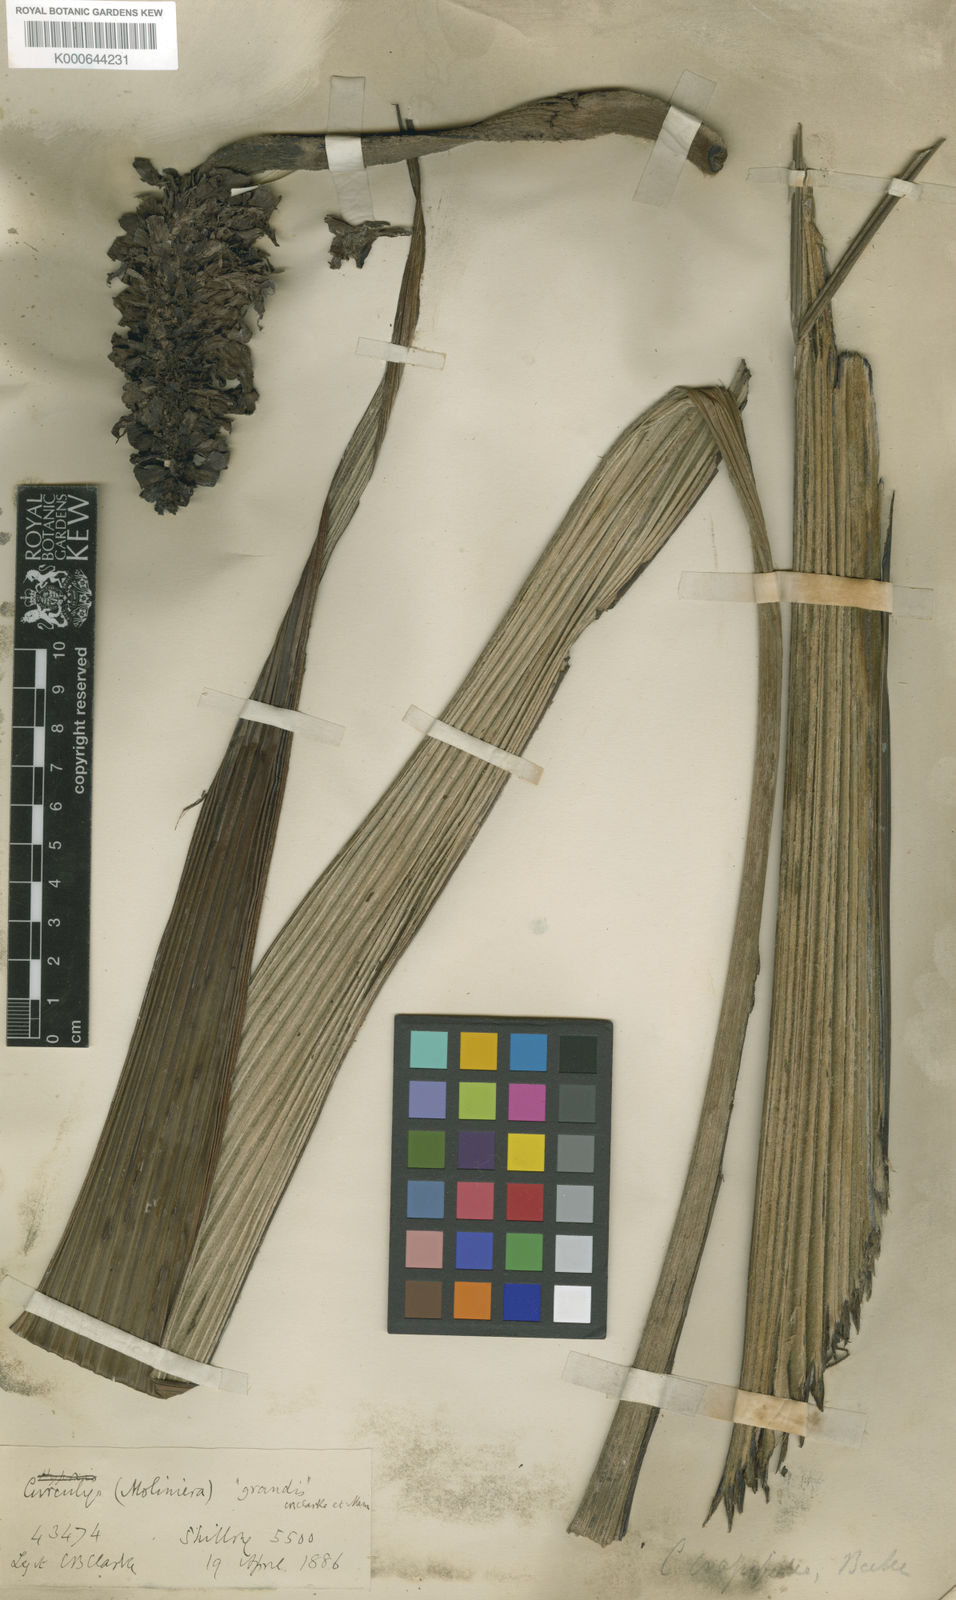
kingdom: Plantae
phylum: Tracheophyta
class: Liliopsida
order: Asparagales
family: Hypoxidaceae
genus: Curculigo
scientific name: Curculigo crassifolia
